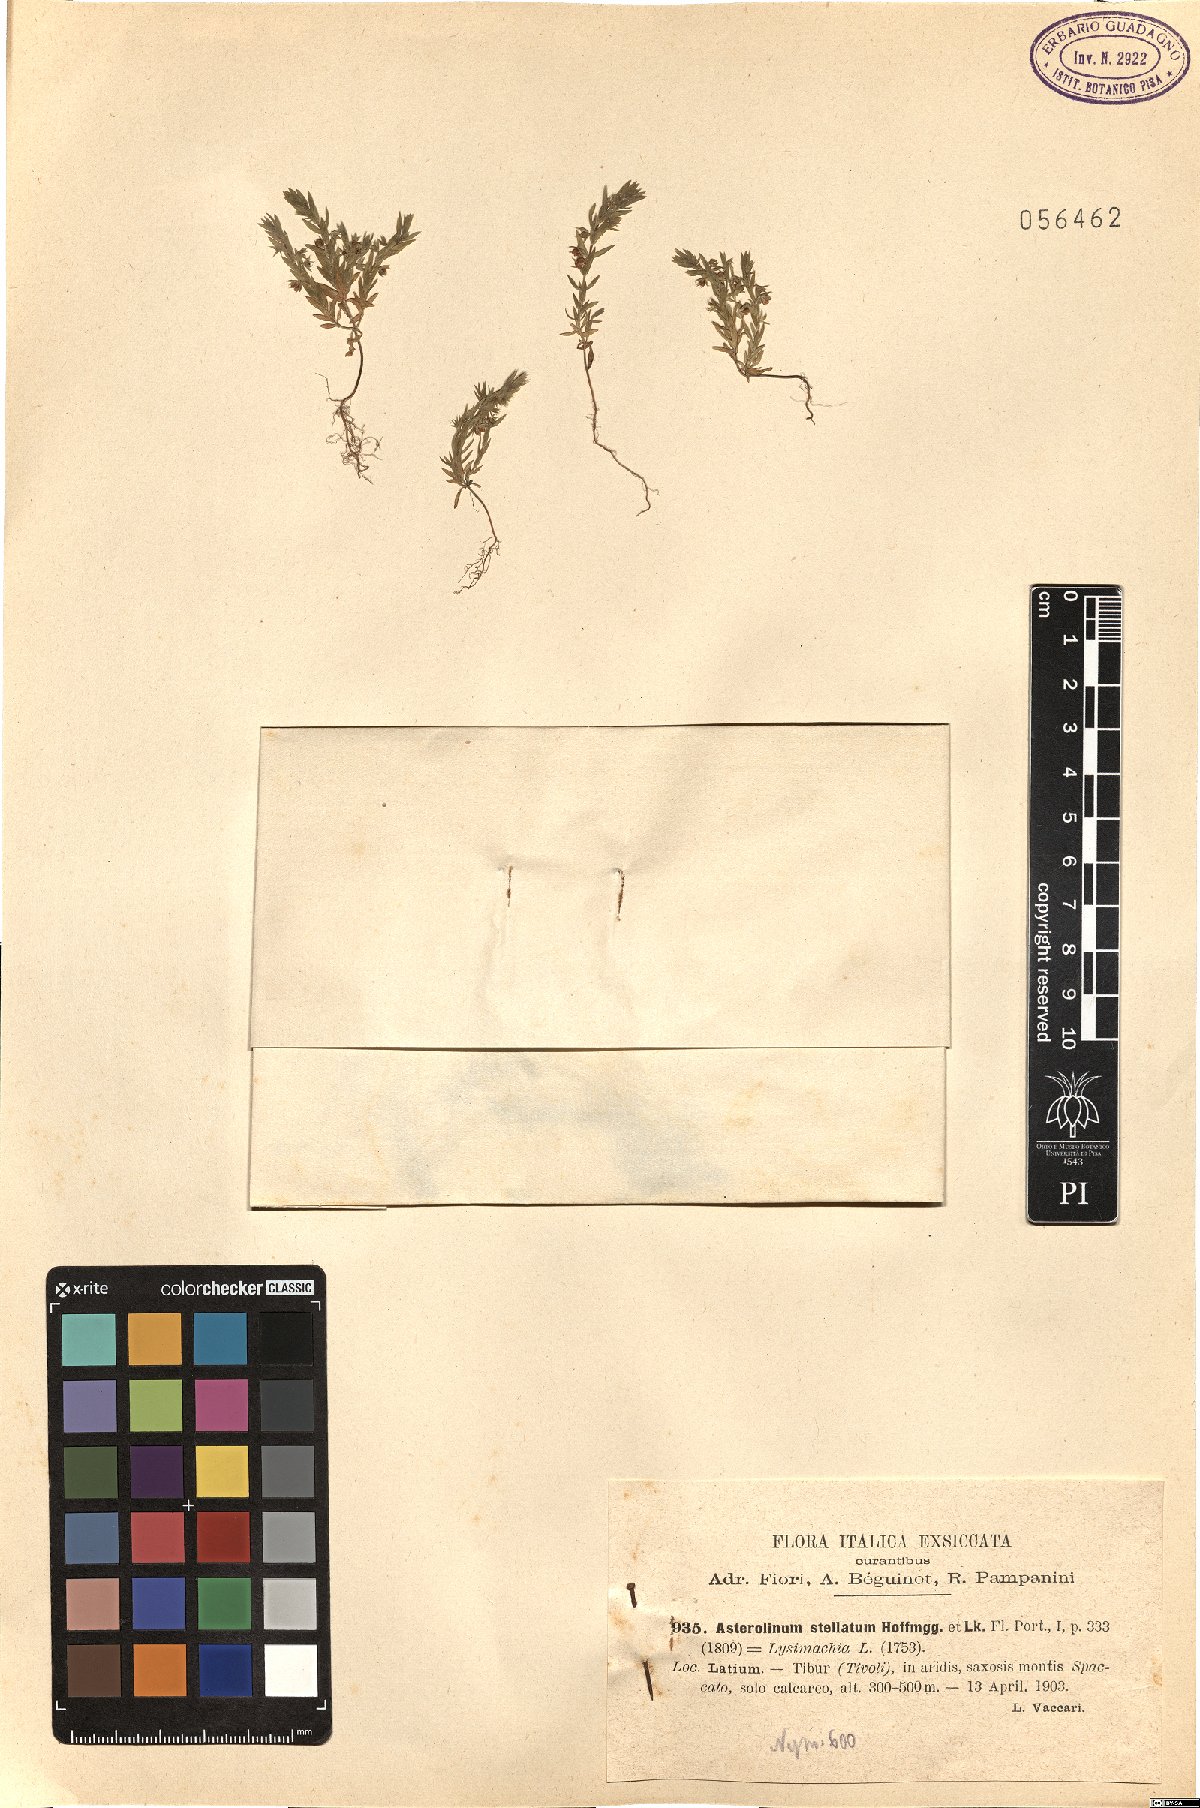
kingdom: Plantae
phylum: Tracheophyta
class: Magnoliopsida
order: Ericales
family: Primulaceae
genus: Lysimachia
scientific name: Lysimachia linum-stellatum
